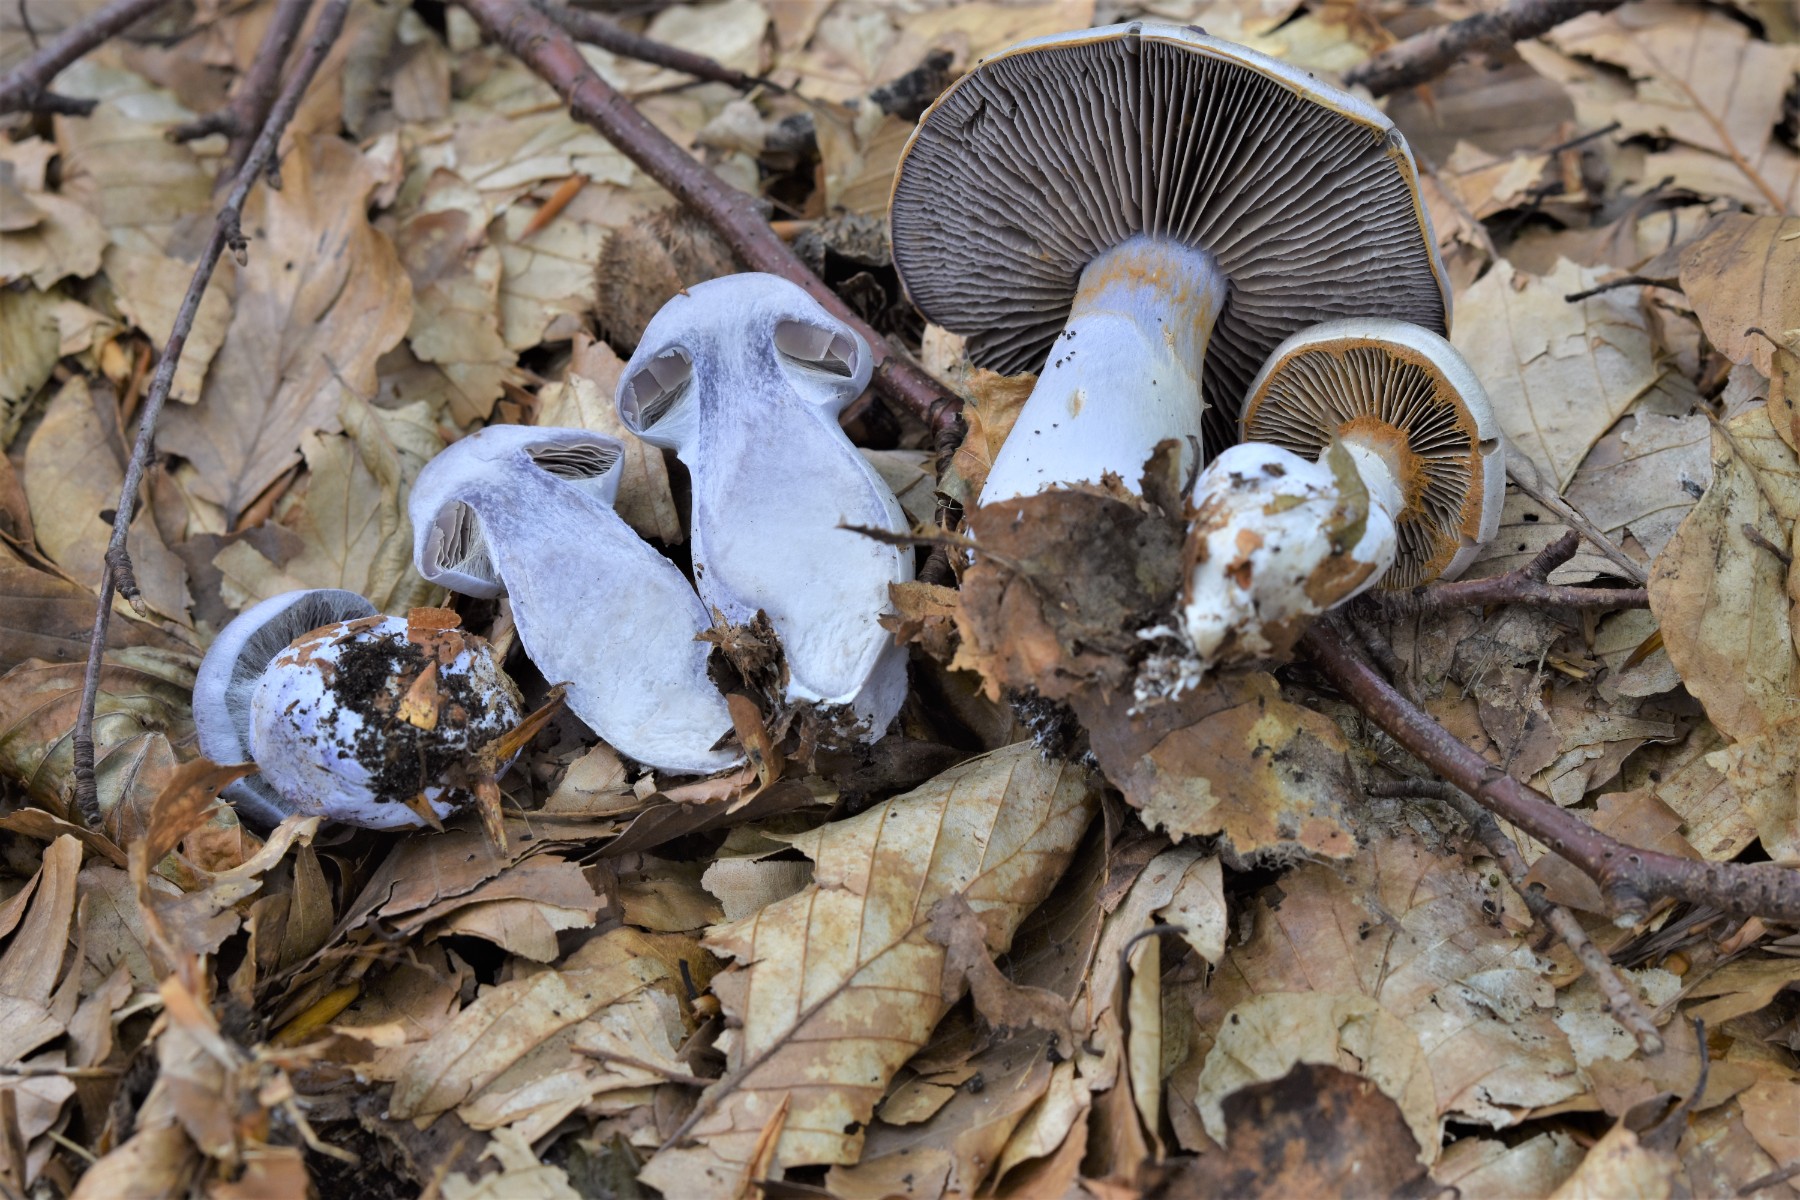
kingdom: Fungi
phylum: Basidiomycota
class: Agaricomycetes
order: Agaricales
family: Cortinariaceae
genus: Cortinarius
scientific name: Cortinarius alboviolaceus
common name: lysviolet slørhat
